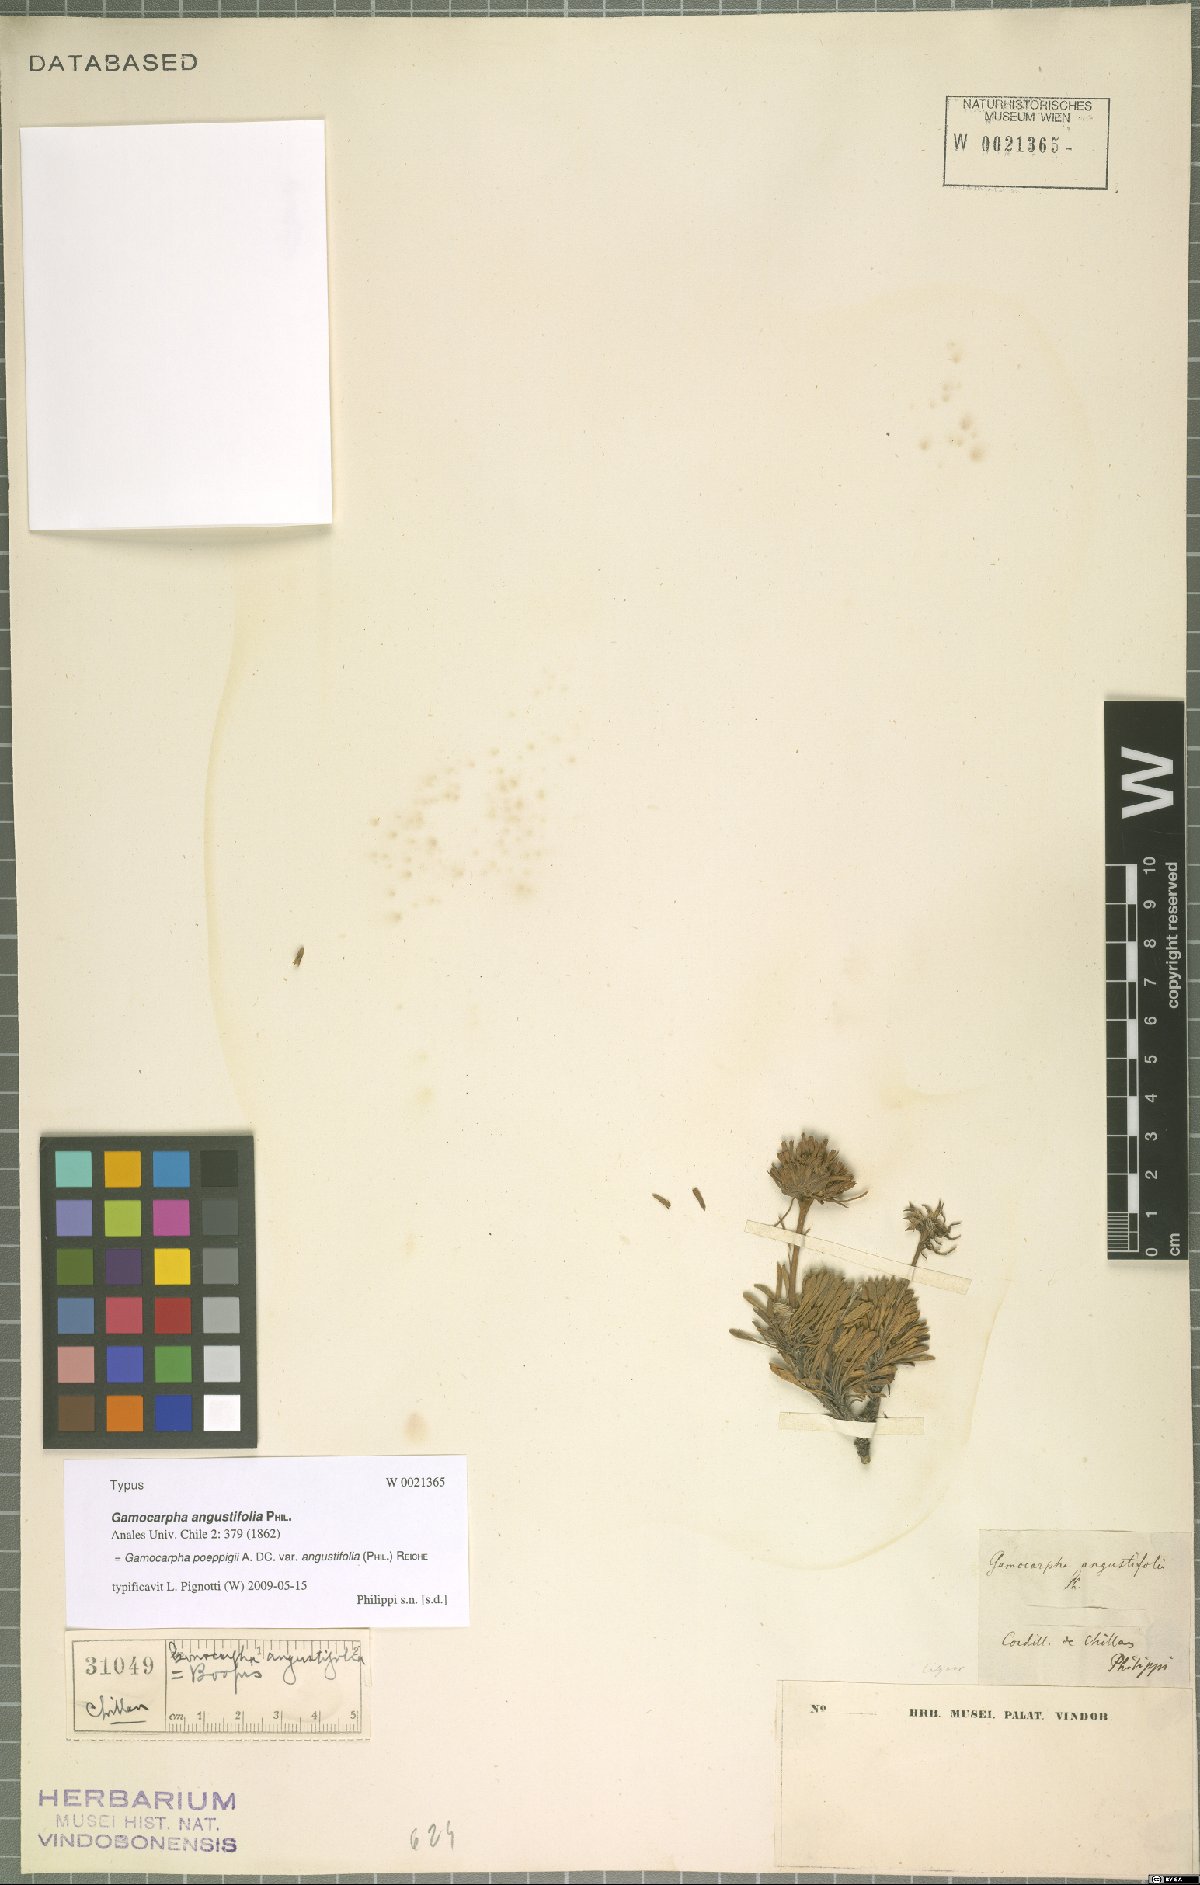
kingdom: Plantae
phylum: Tracheophyta
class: Magnoliopsida
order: Asterales
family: Calyceraceae
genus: Moschopsis
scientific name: Moschopsis angustifolia
